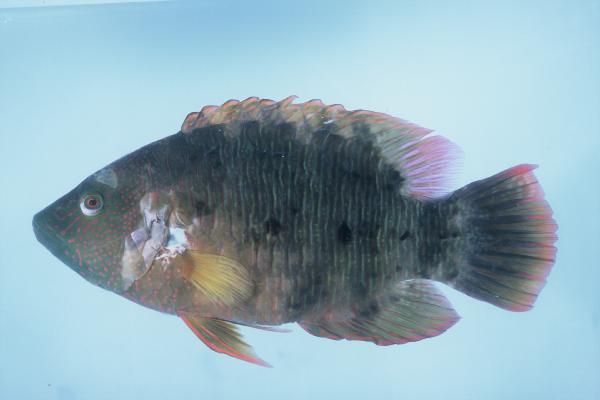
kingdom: Animalia
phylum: Chordata
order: Perciformes
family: Labridae
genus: Cheilinus
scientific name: Cheilinus trilobatus
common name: Tripletail maori wrasse
